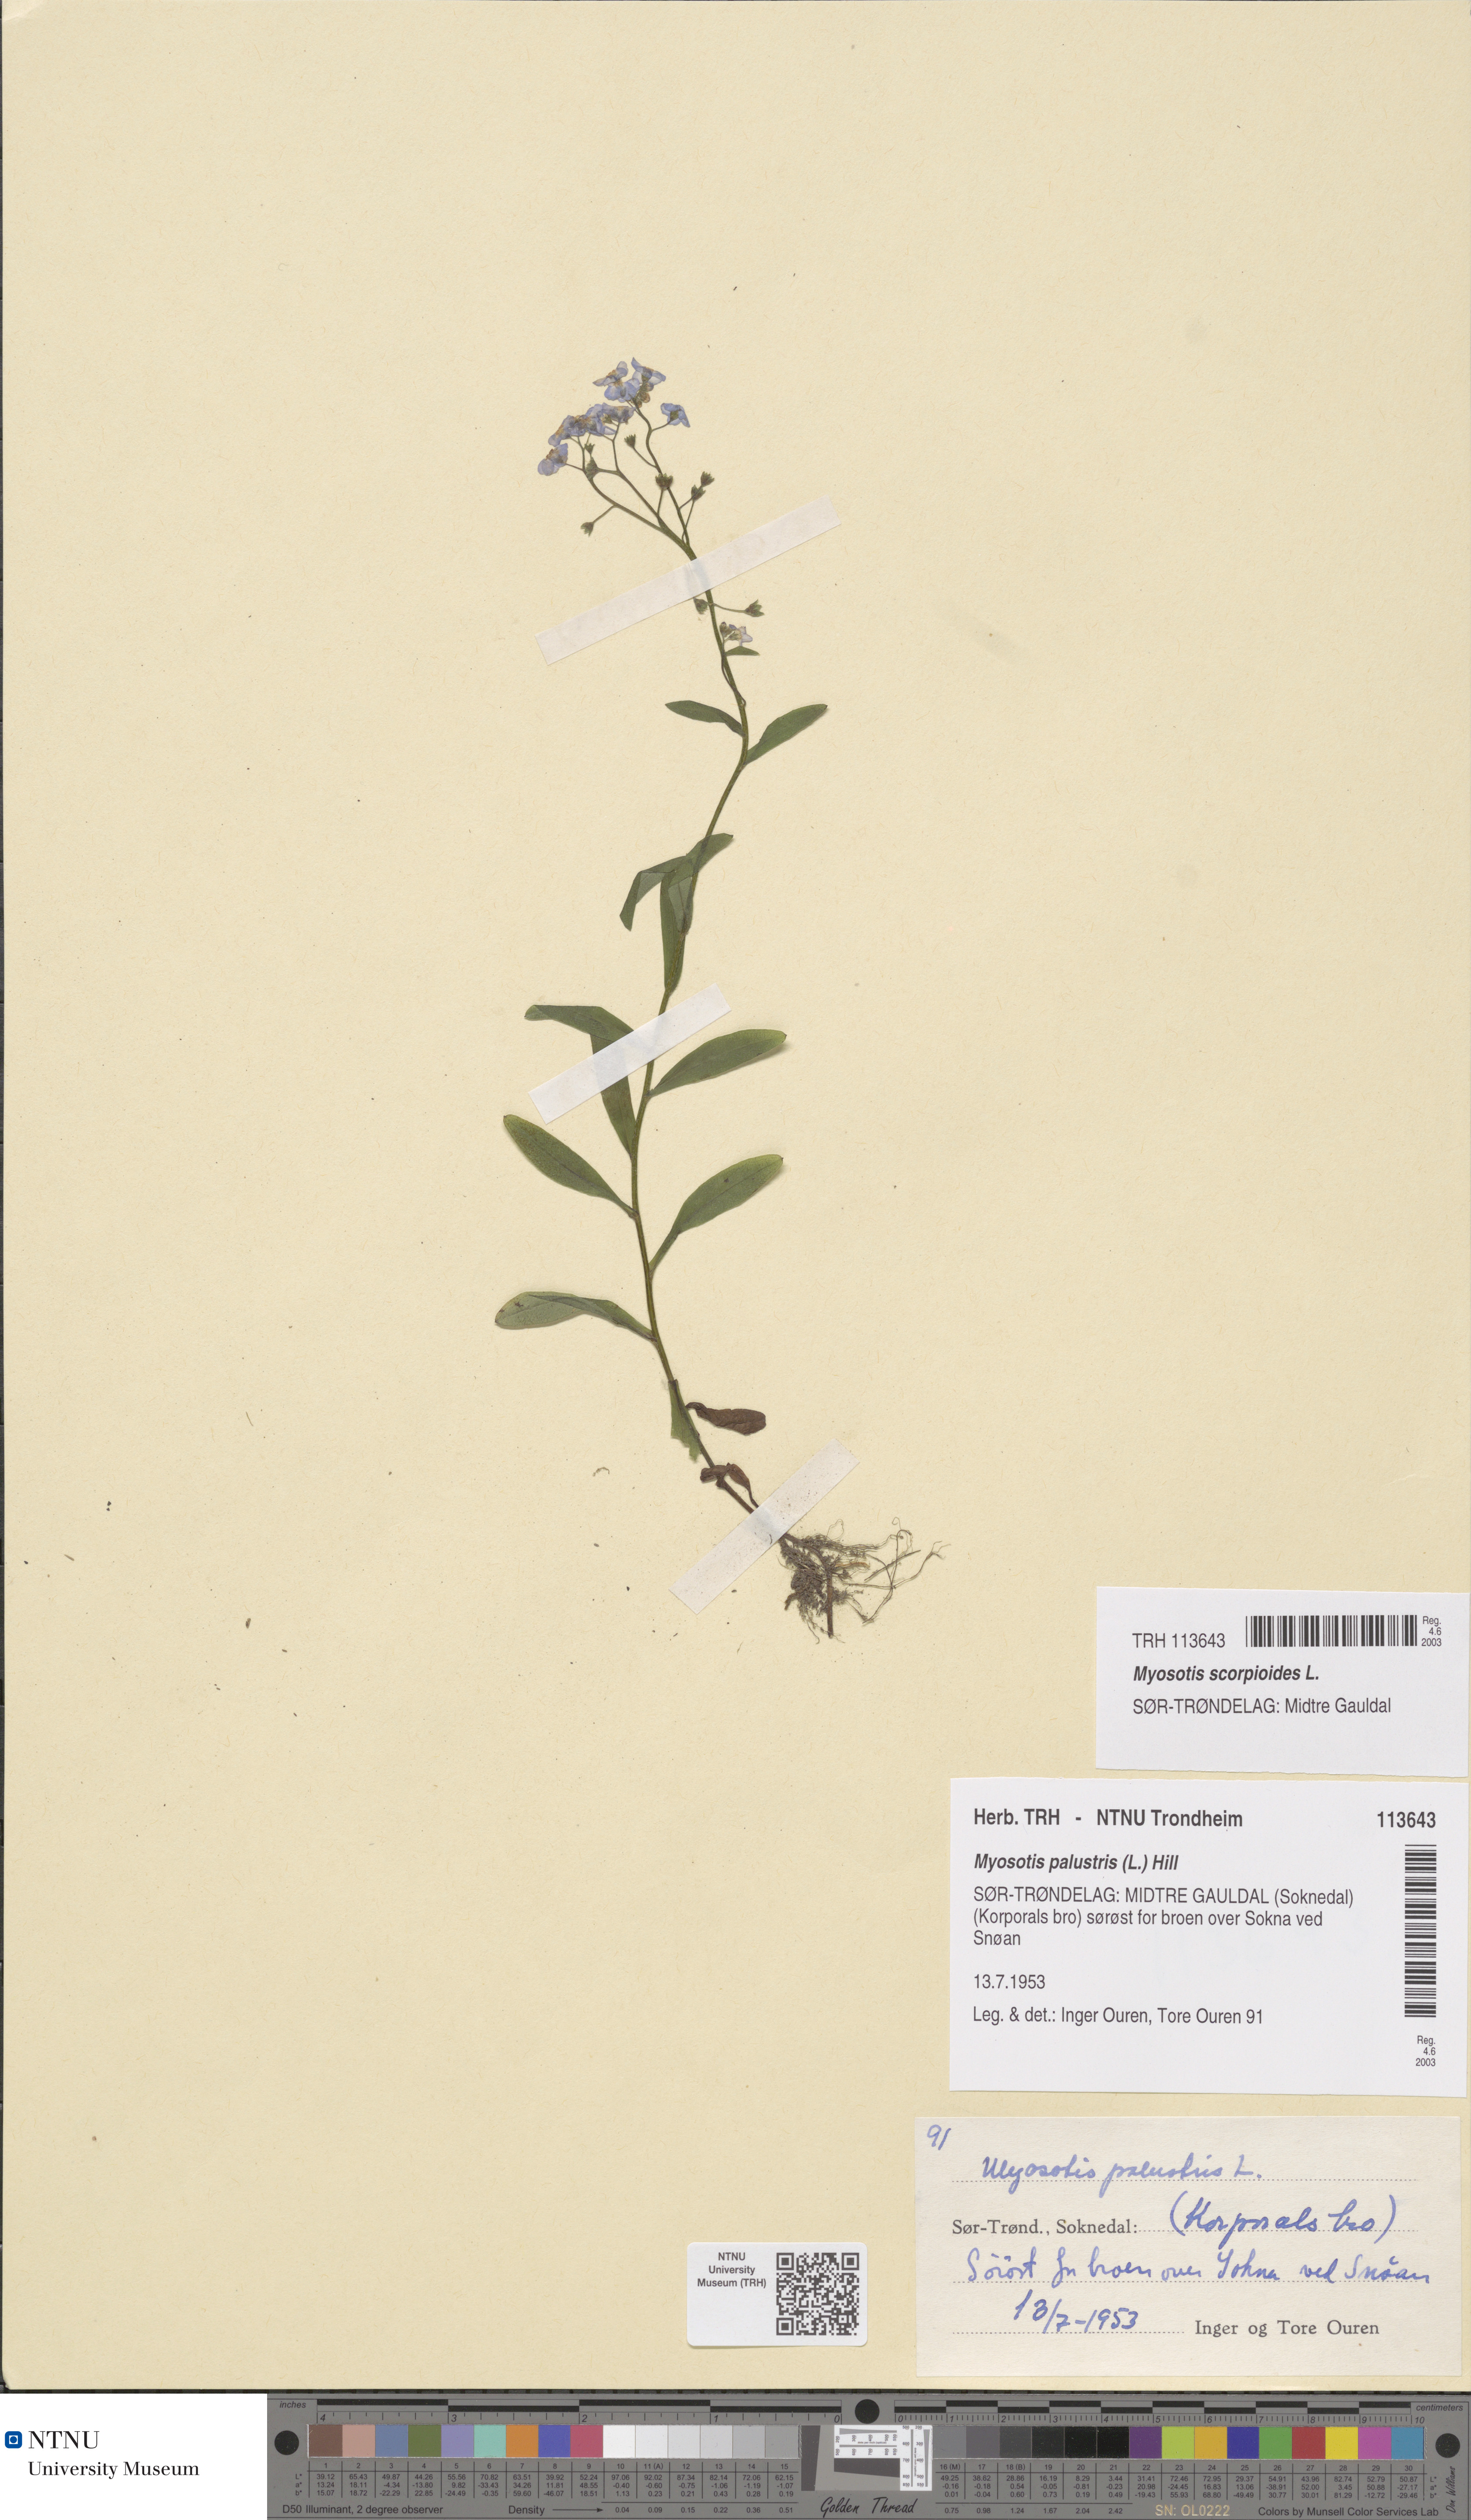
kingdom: Plantae
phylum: Tracheophyta
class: Magnoliopsida
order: Boraginales
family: Boraginaceae
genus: Myosotis
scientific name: Myosotis scorpioides
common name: Water forget-me-not
